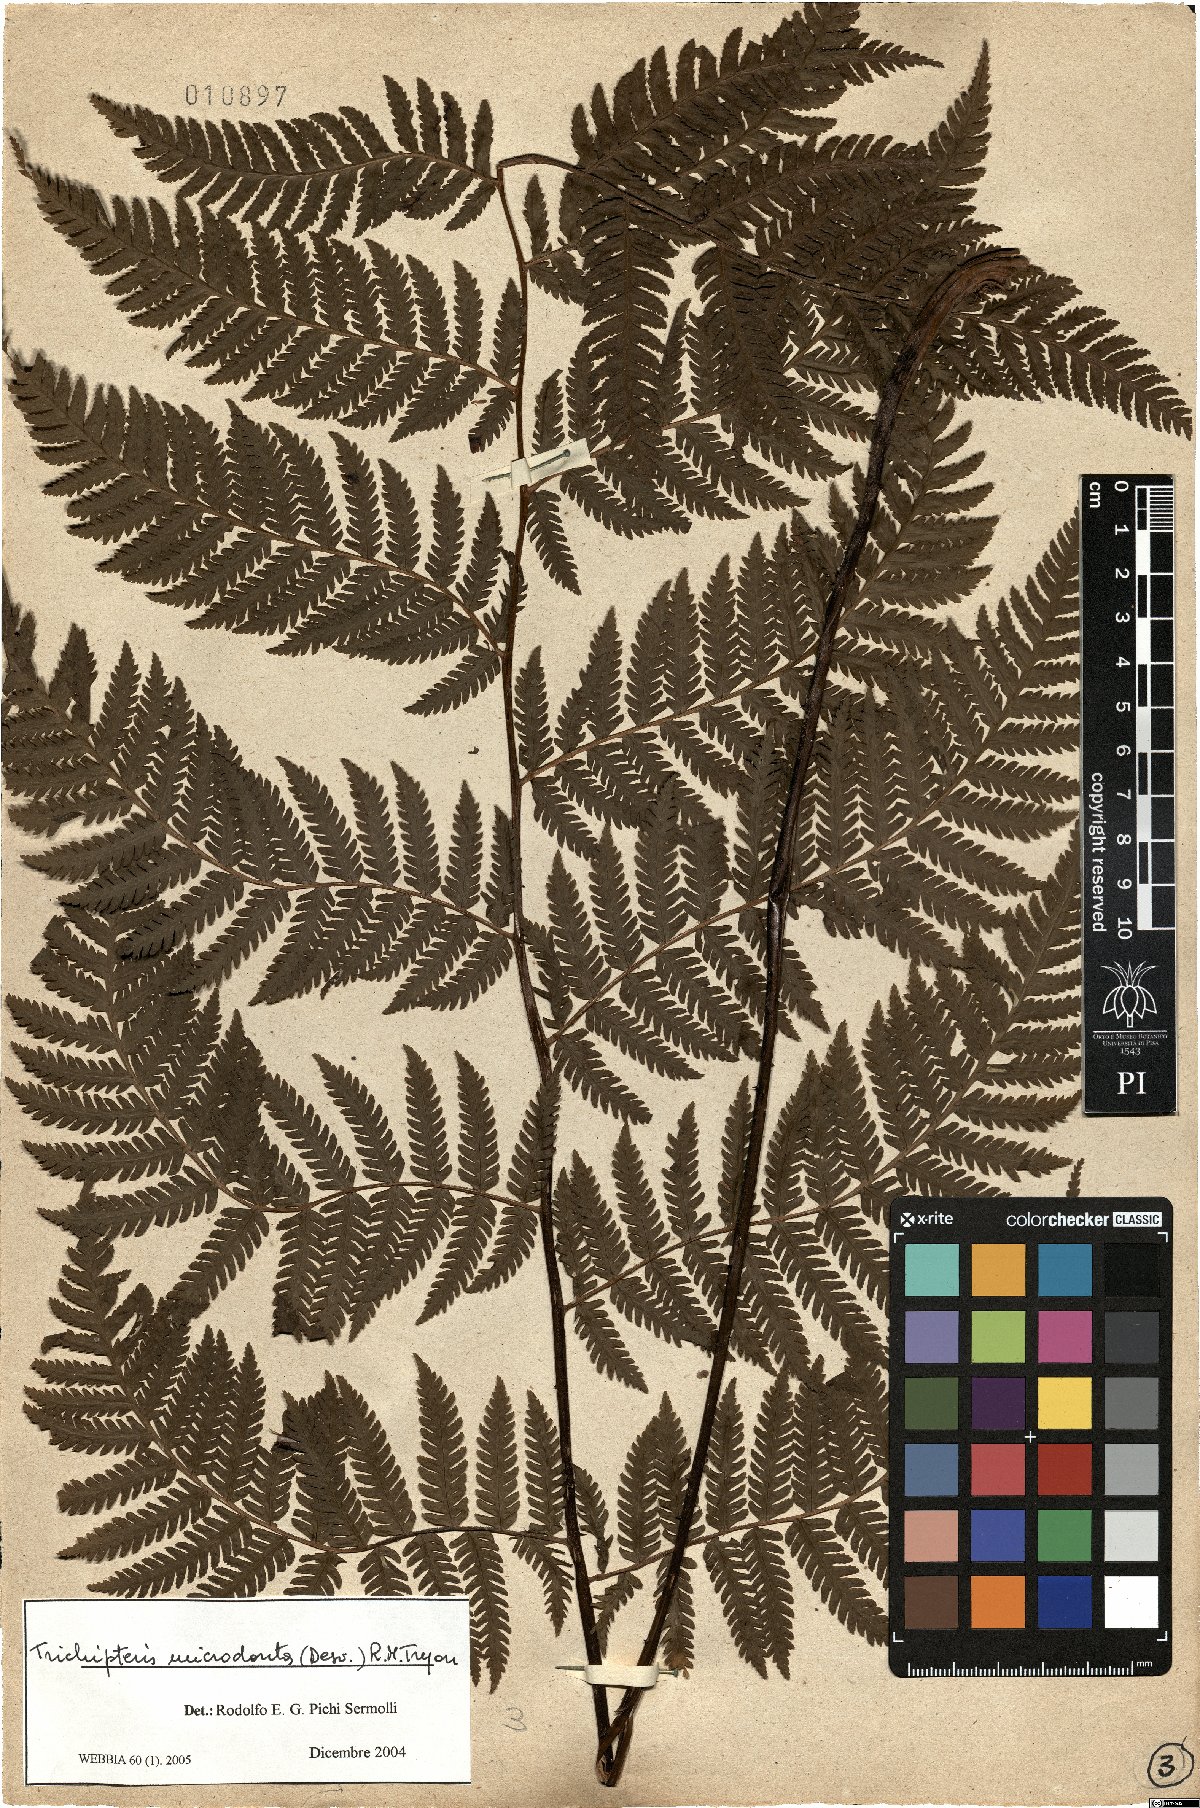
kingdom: Plantae
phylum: Tracheophyta
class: Polypodiopsida
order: Cyatheales
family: Cyatheaceae
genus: Cyathea
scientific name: Cyathea microdonta
